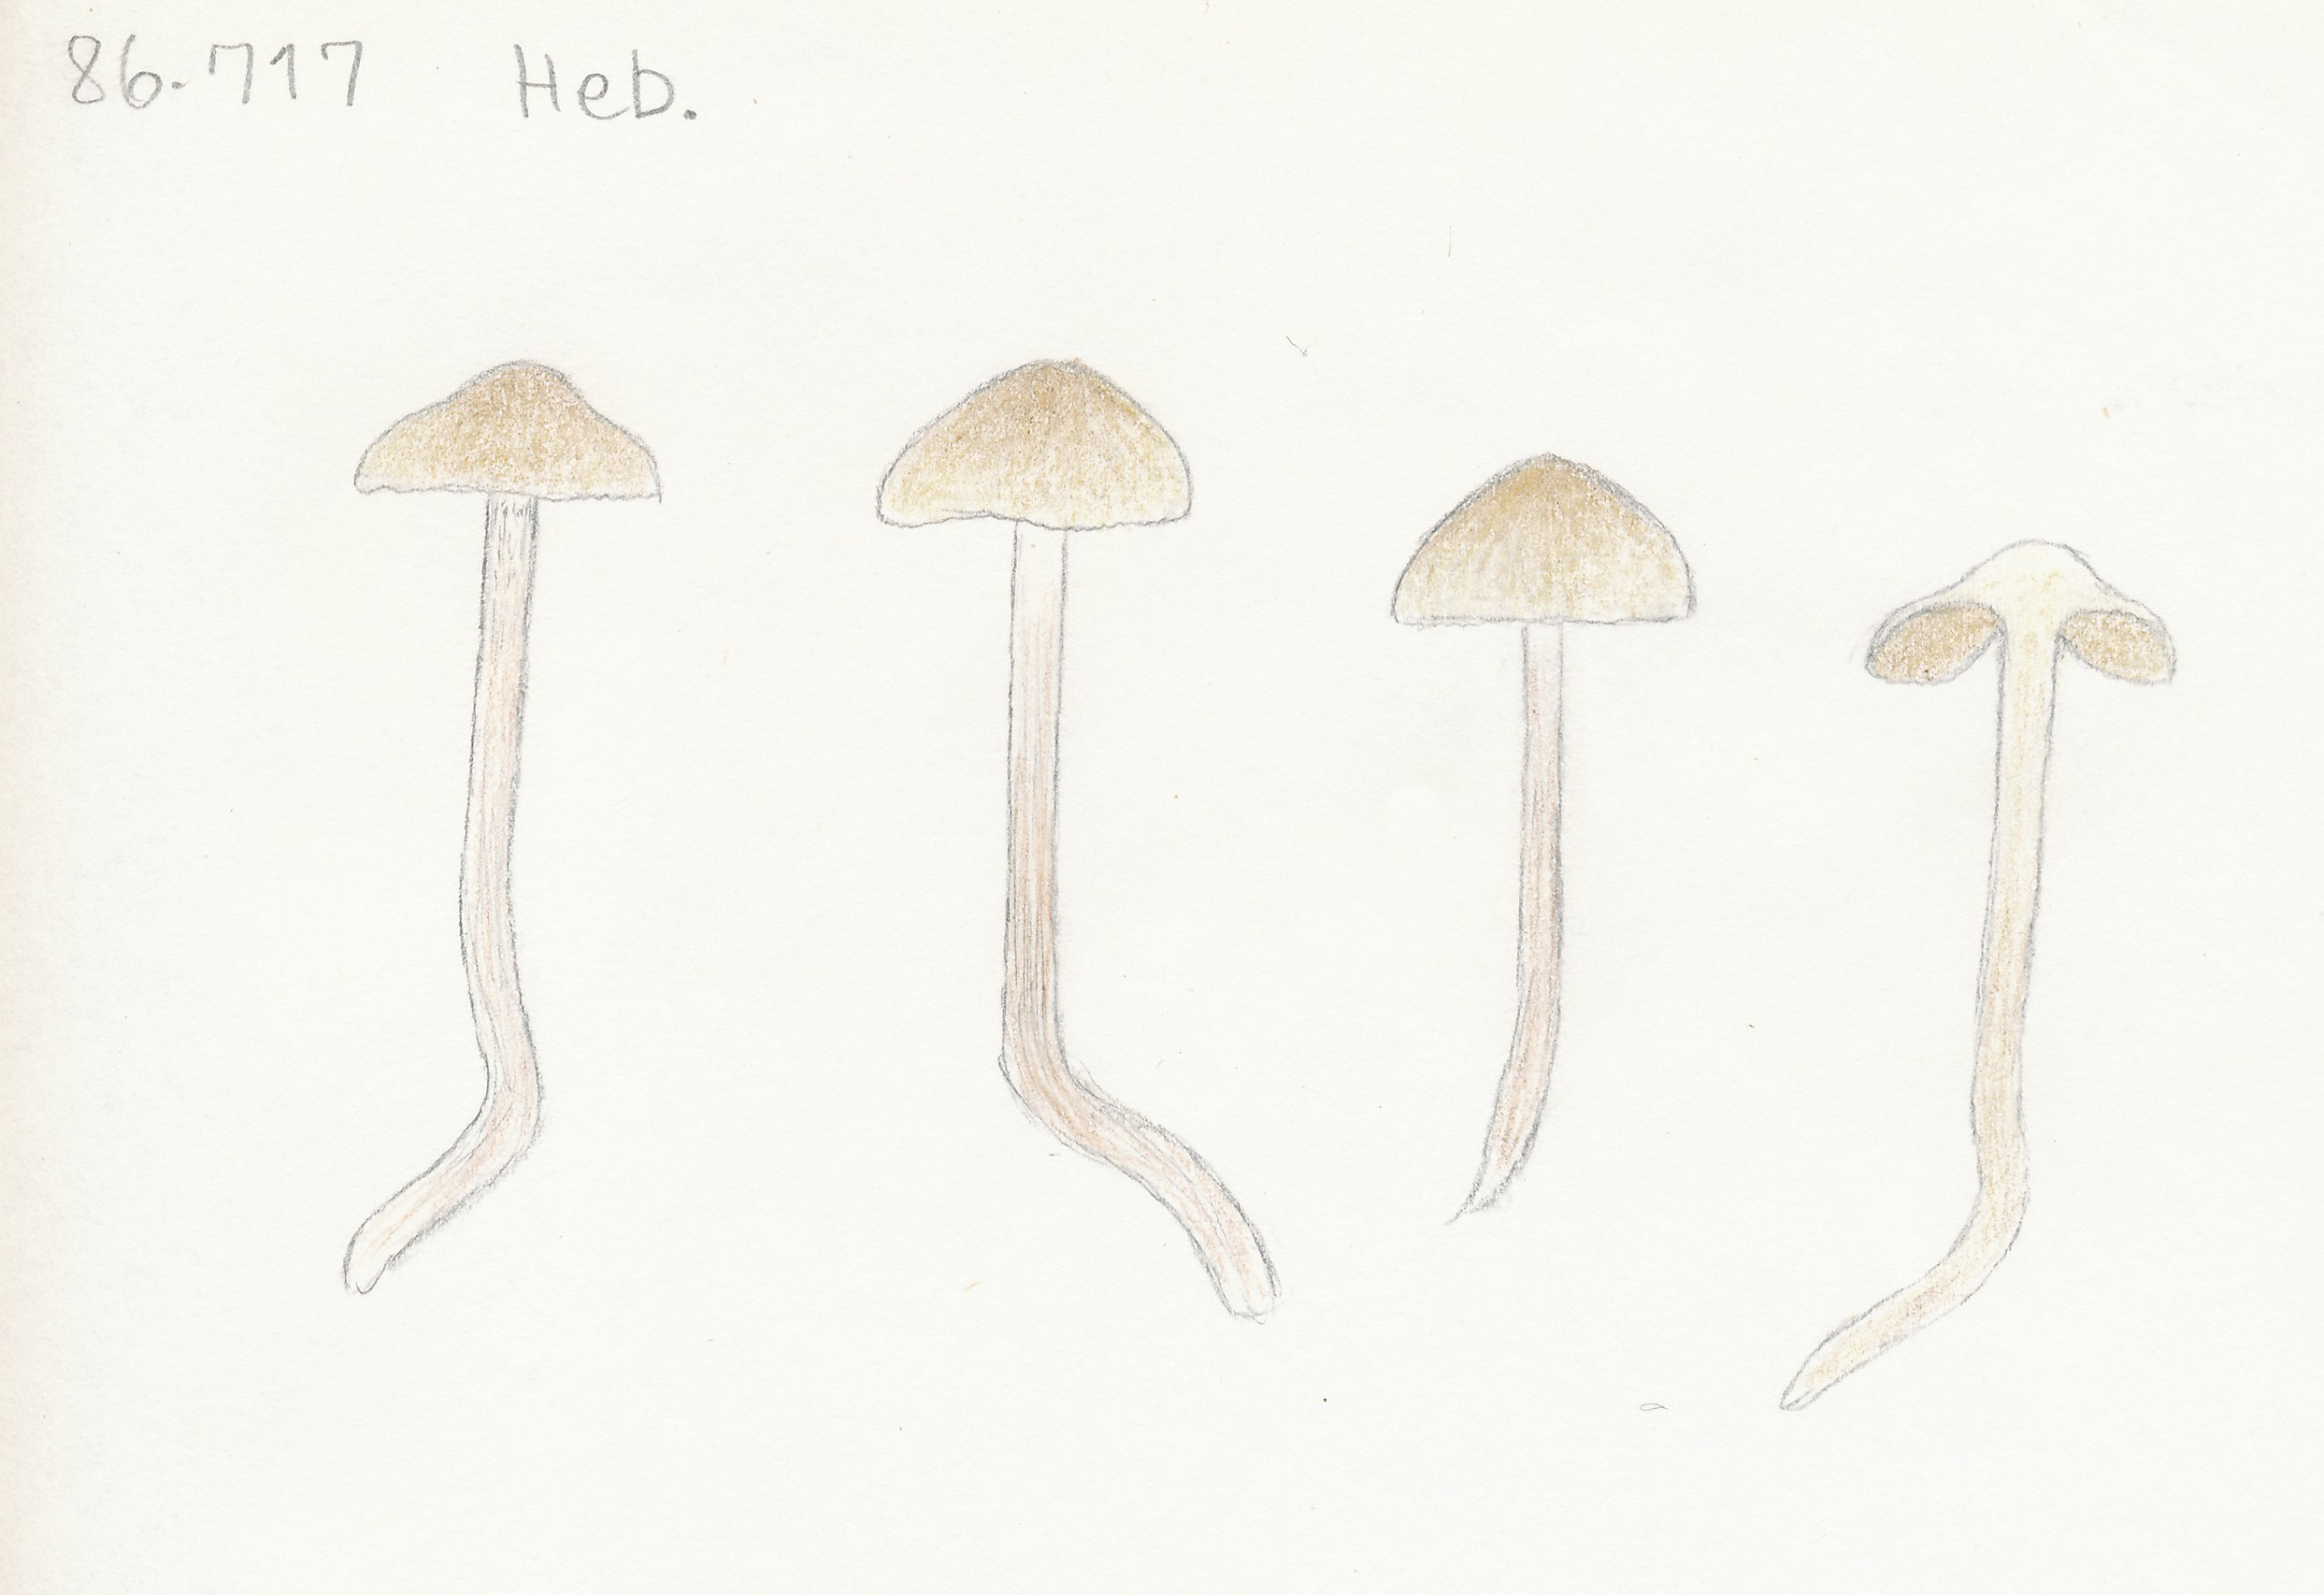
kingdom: Fungi
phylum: Basidiomycota
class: Agaricomycetes
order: Agaricales
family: Hymenogastraceae
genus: Hebeloma
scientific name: Hebeloma pusillum
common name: mose-tåreblad
